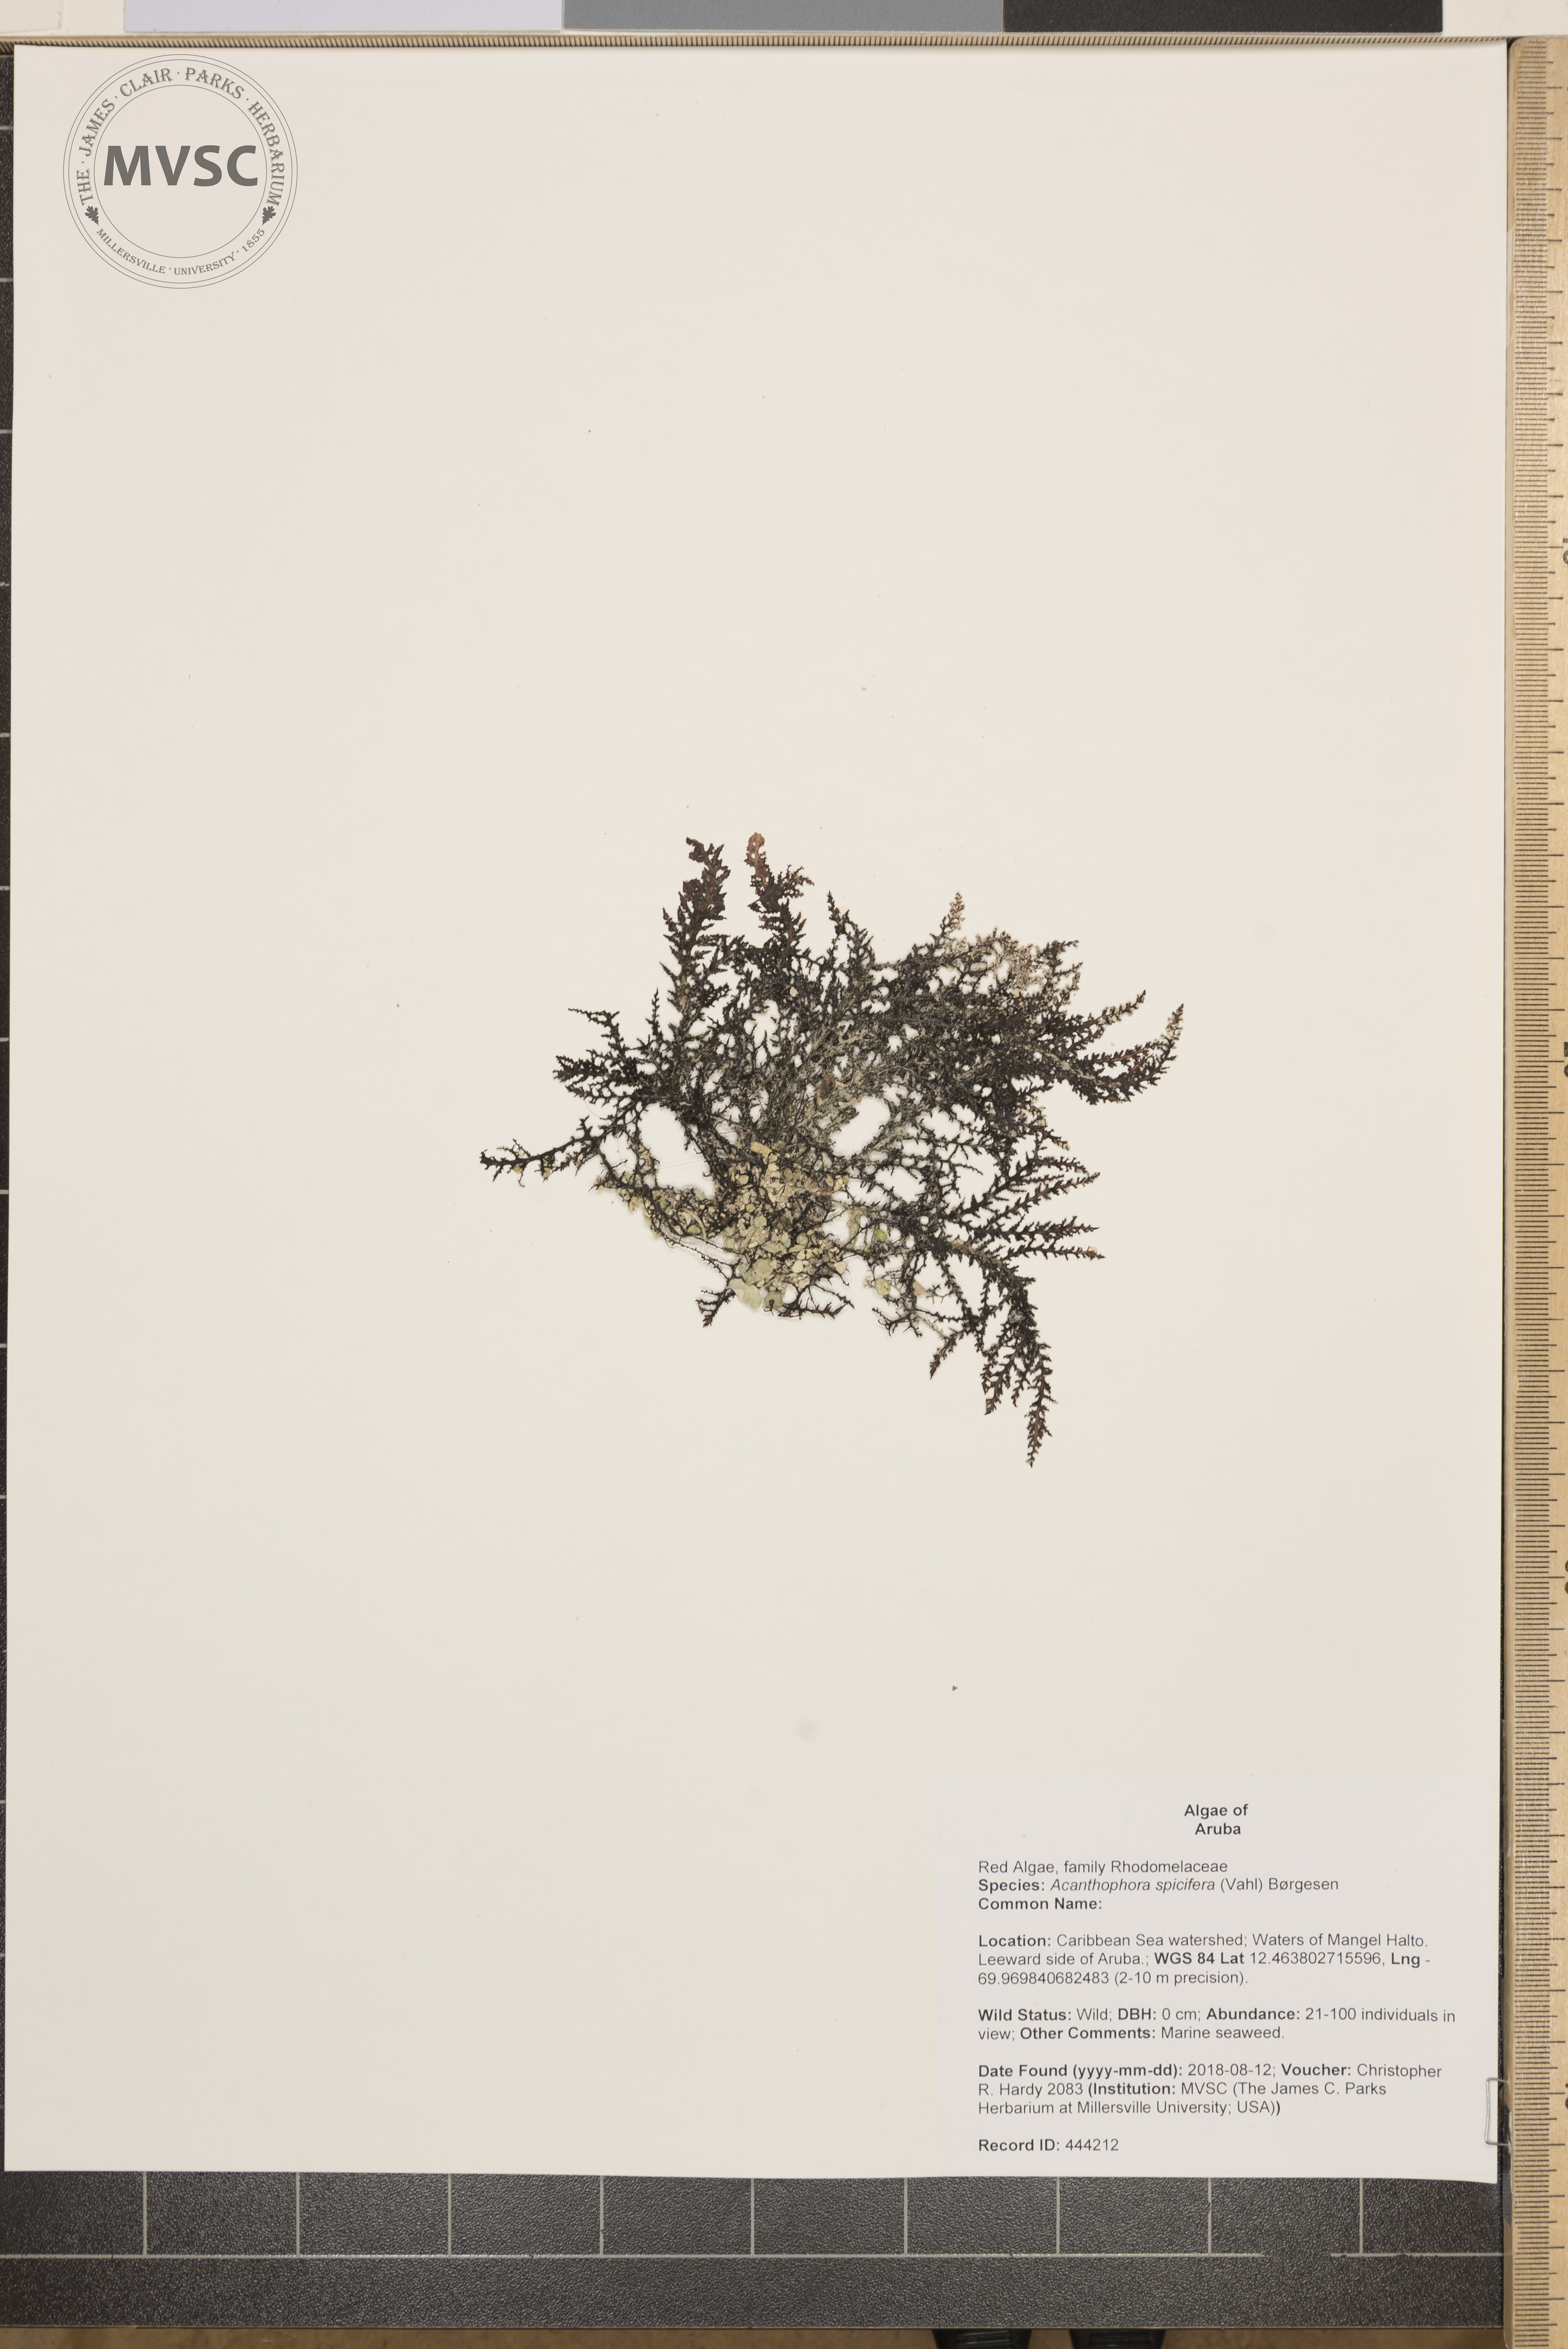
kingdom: Plantae
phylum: Rhodophyta
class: Florideophyceae
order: Ceramiales
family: Rhodomelaceae
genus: Acanthophora
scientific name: Acanthophora spicifera
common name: Red algae
